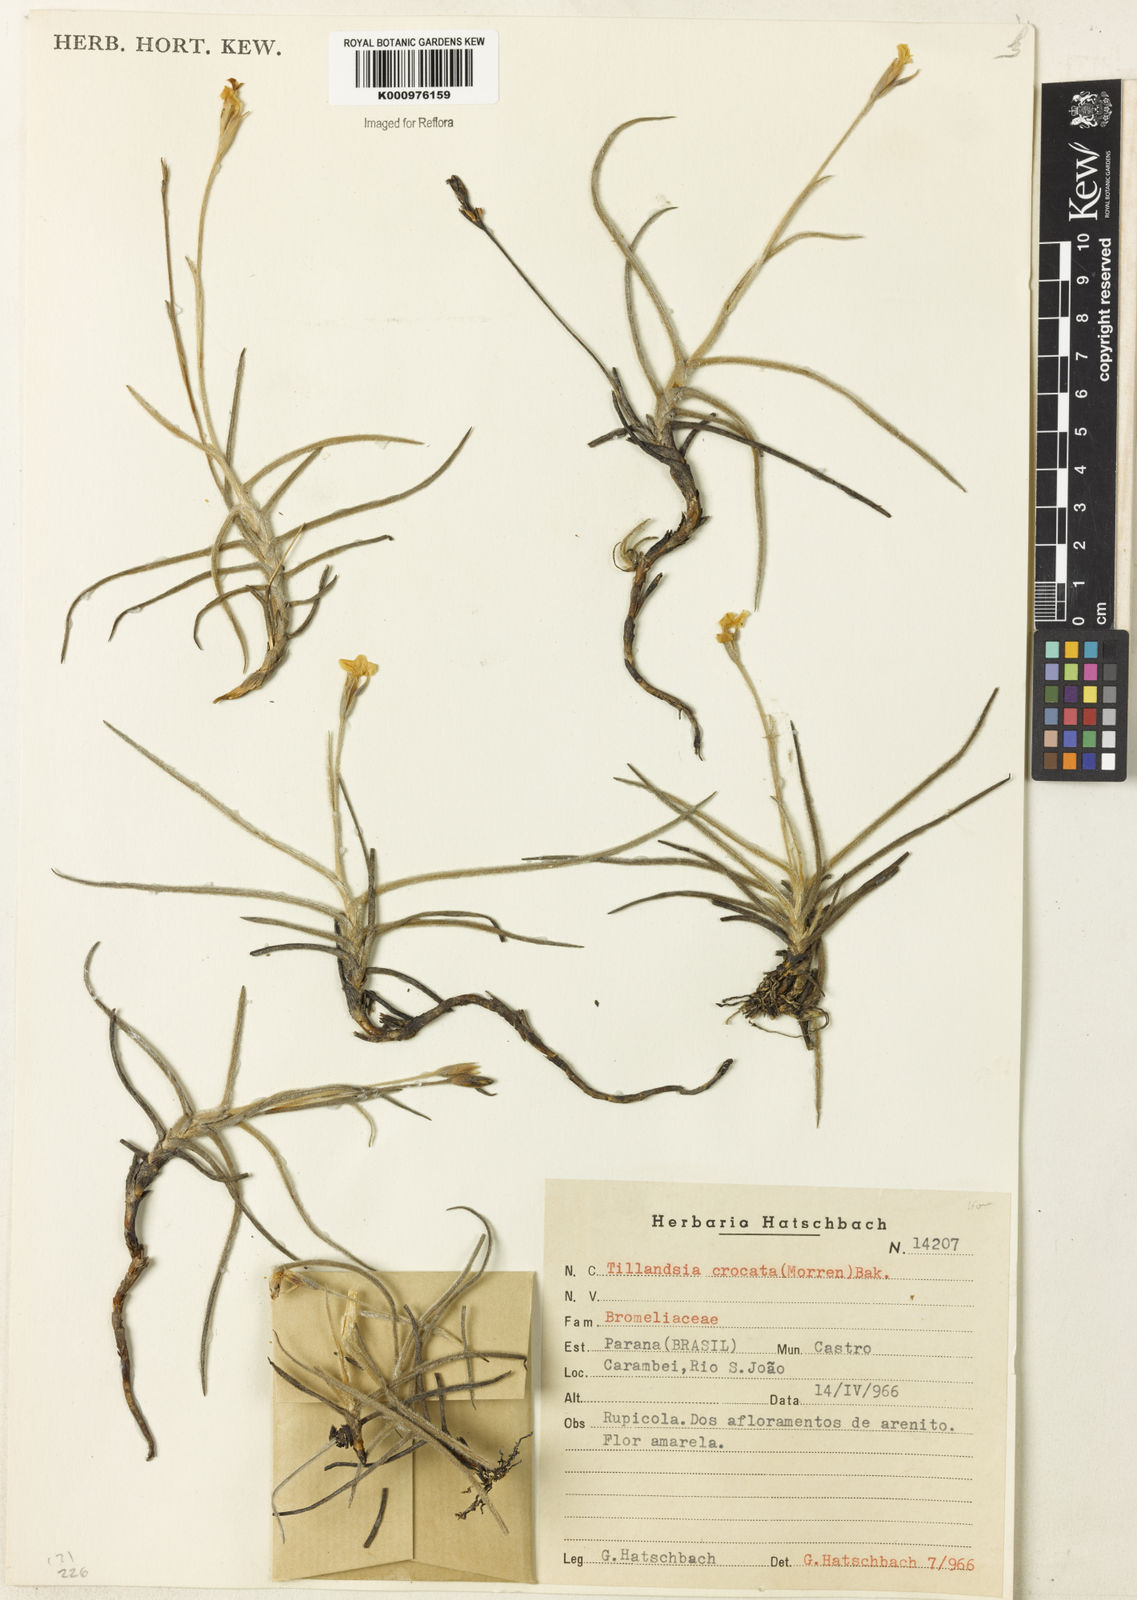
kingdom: Plantae
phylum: Tracheophyta
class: Liliopsida
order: Poales
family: Bromeliaceae
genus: Tillandsia
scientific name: Tillandsia
